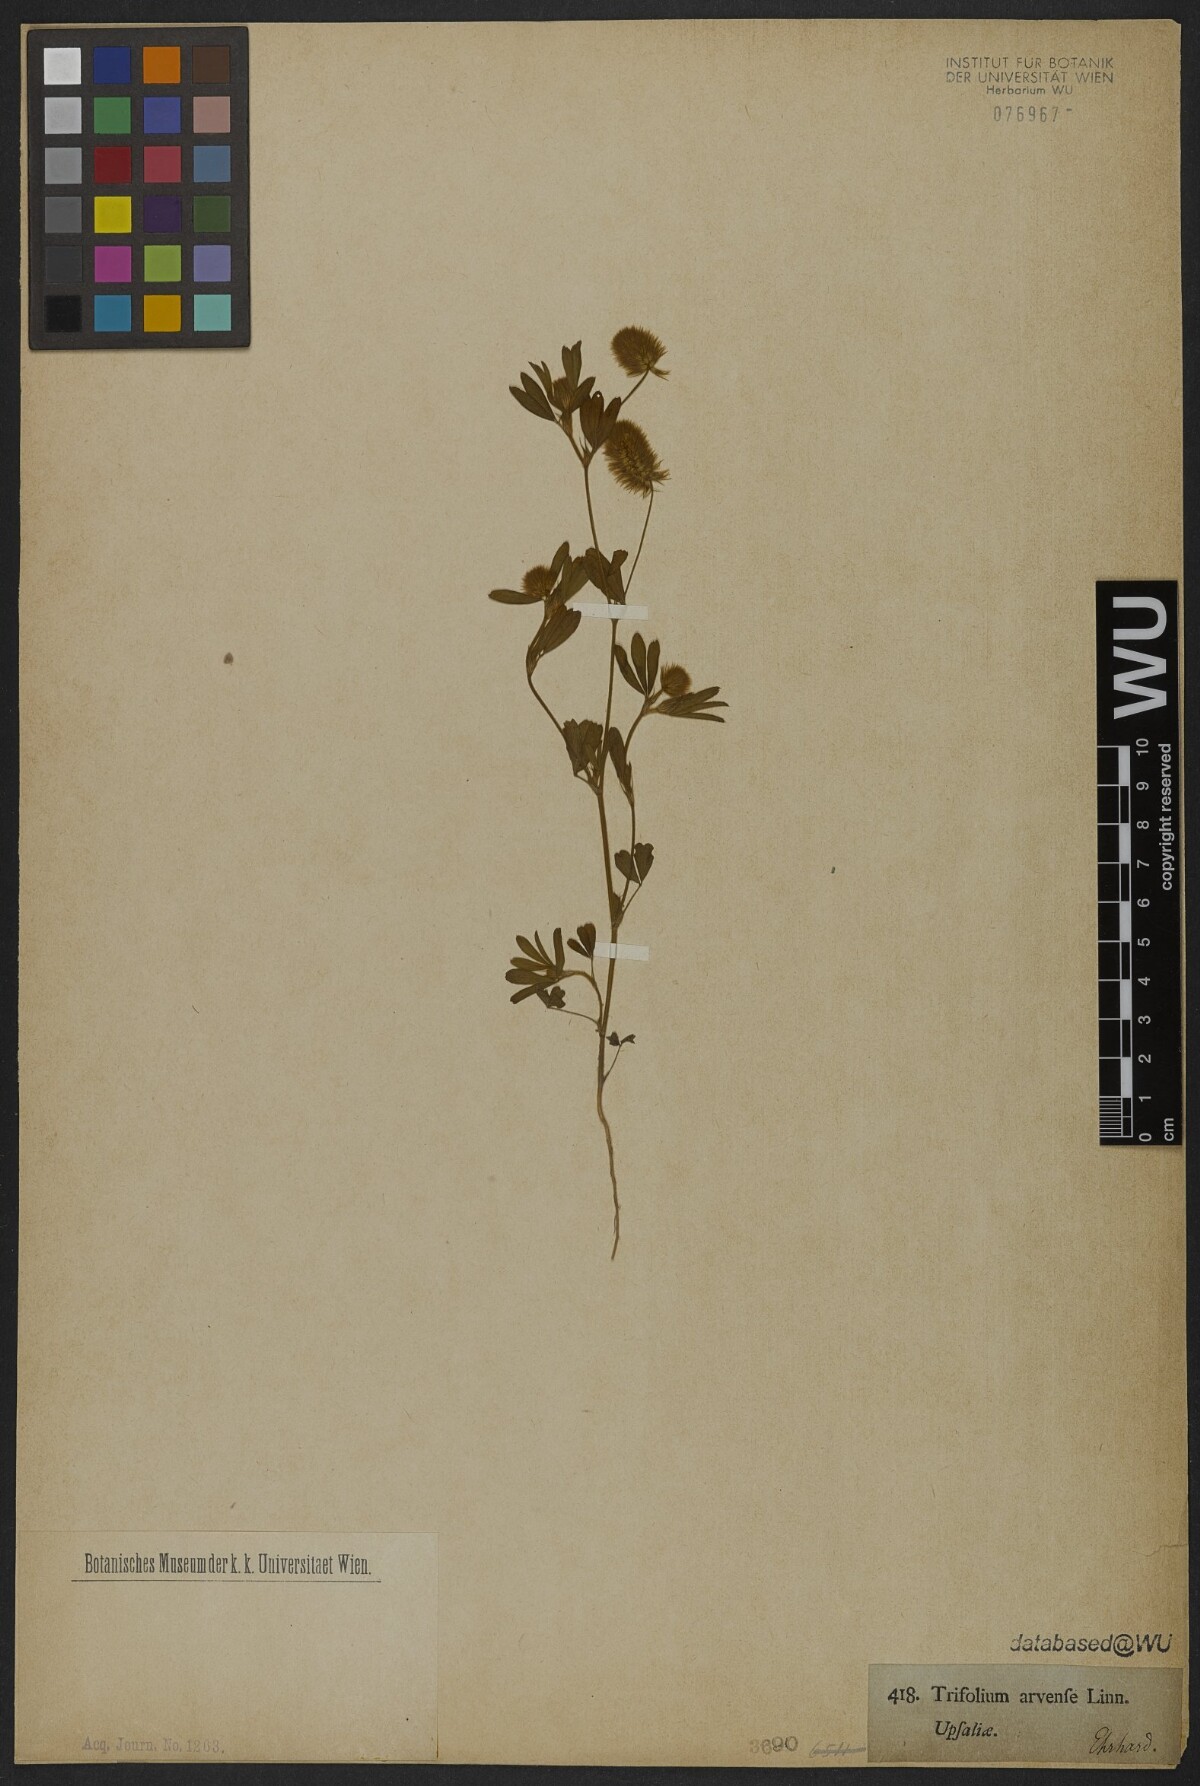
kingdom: Plantae
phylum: Tracheophyta
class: Magnoliopsida
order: Fabales
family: Fabaceae
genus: Trifolium
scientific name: Trifolium arvense
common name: Hare's-foot clover
